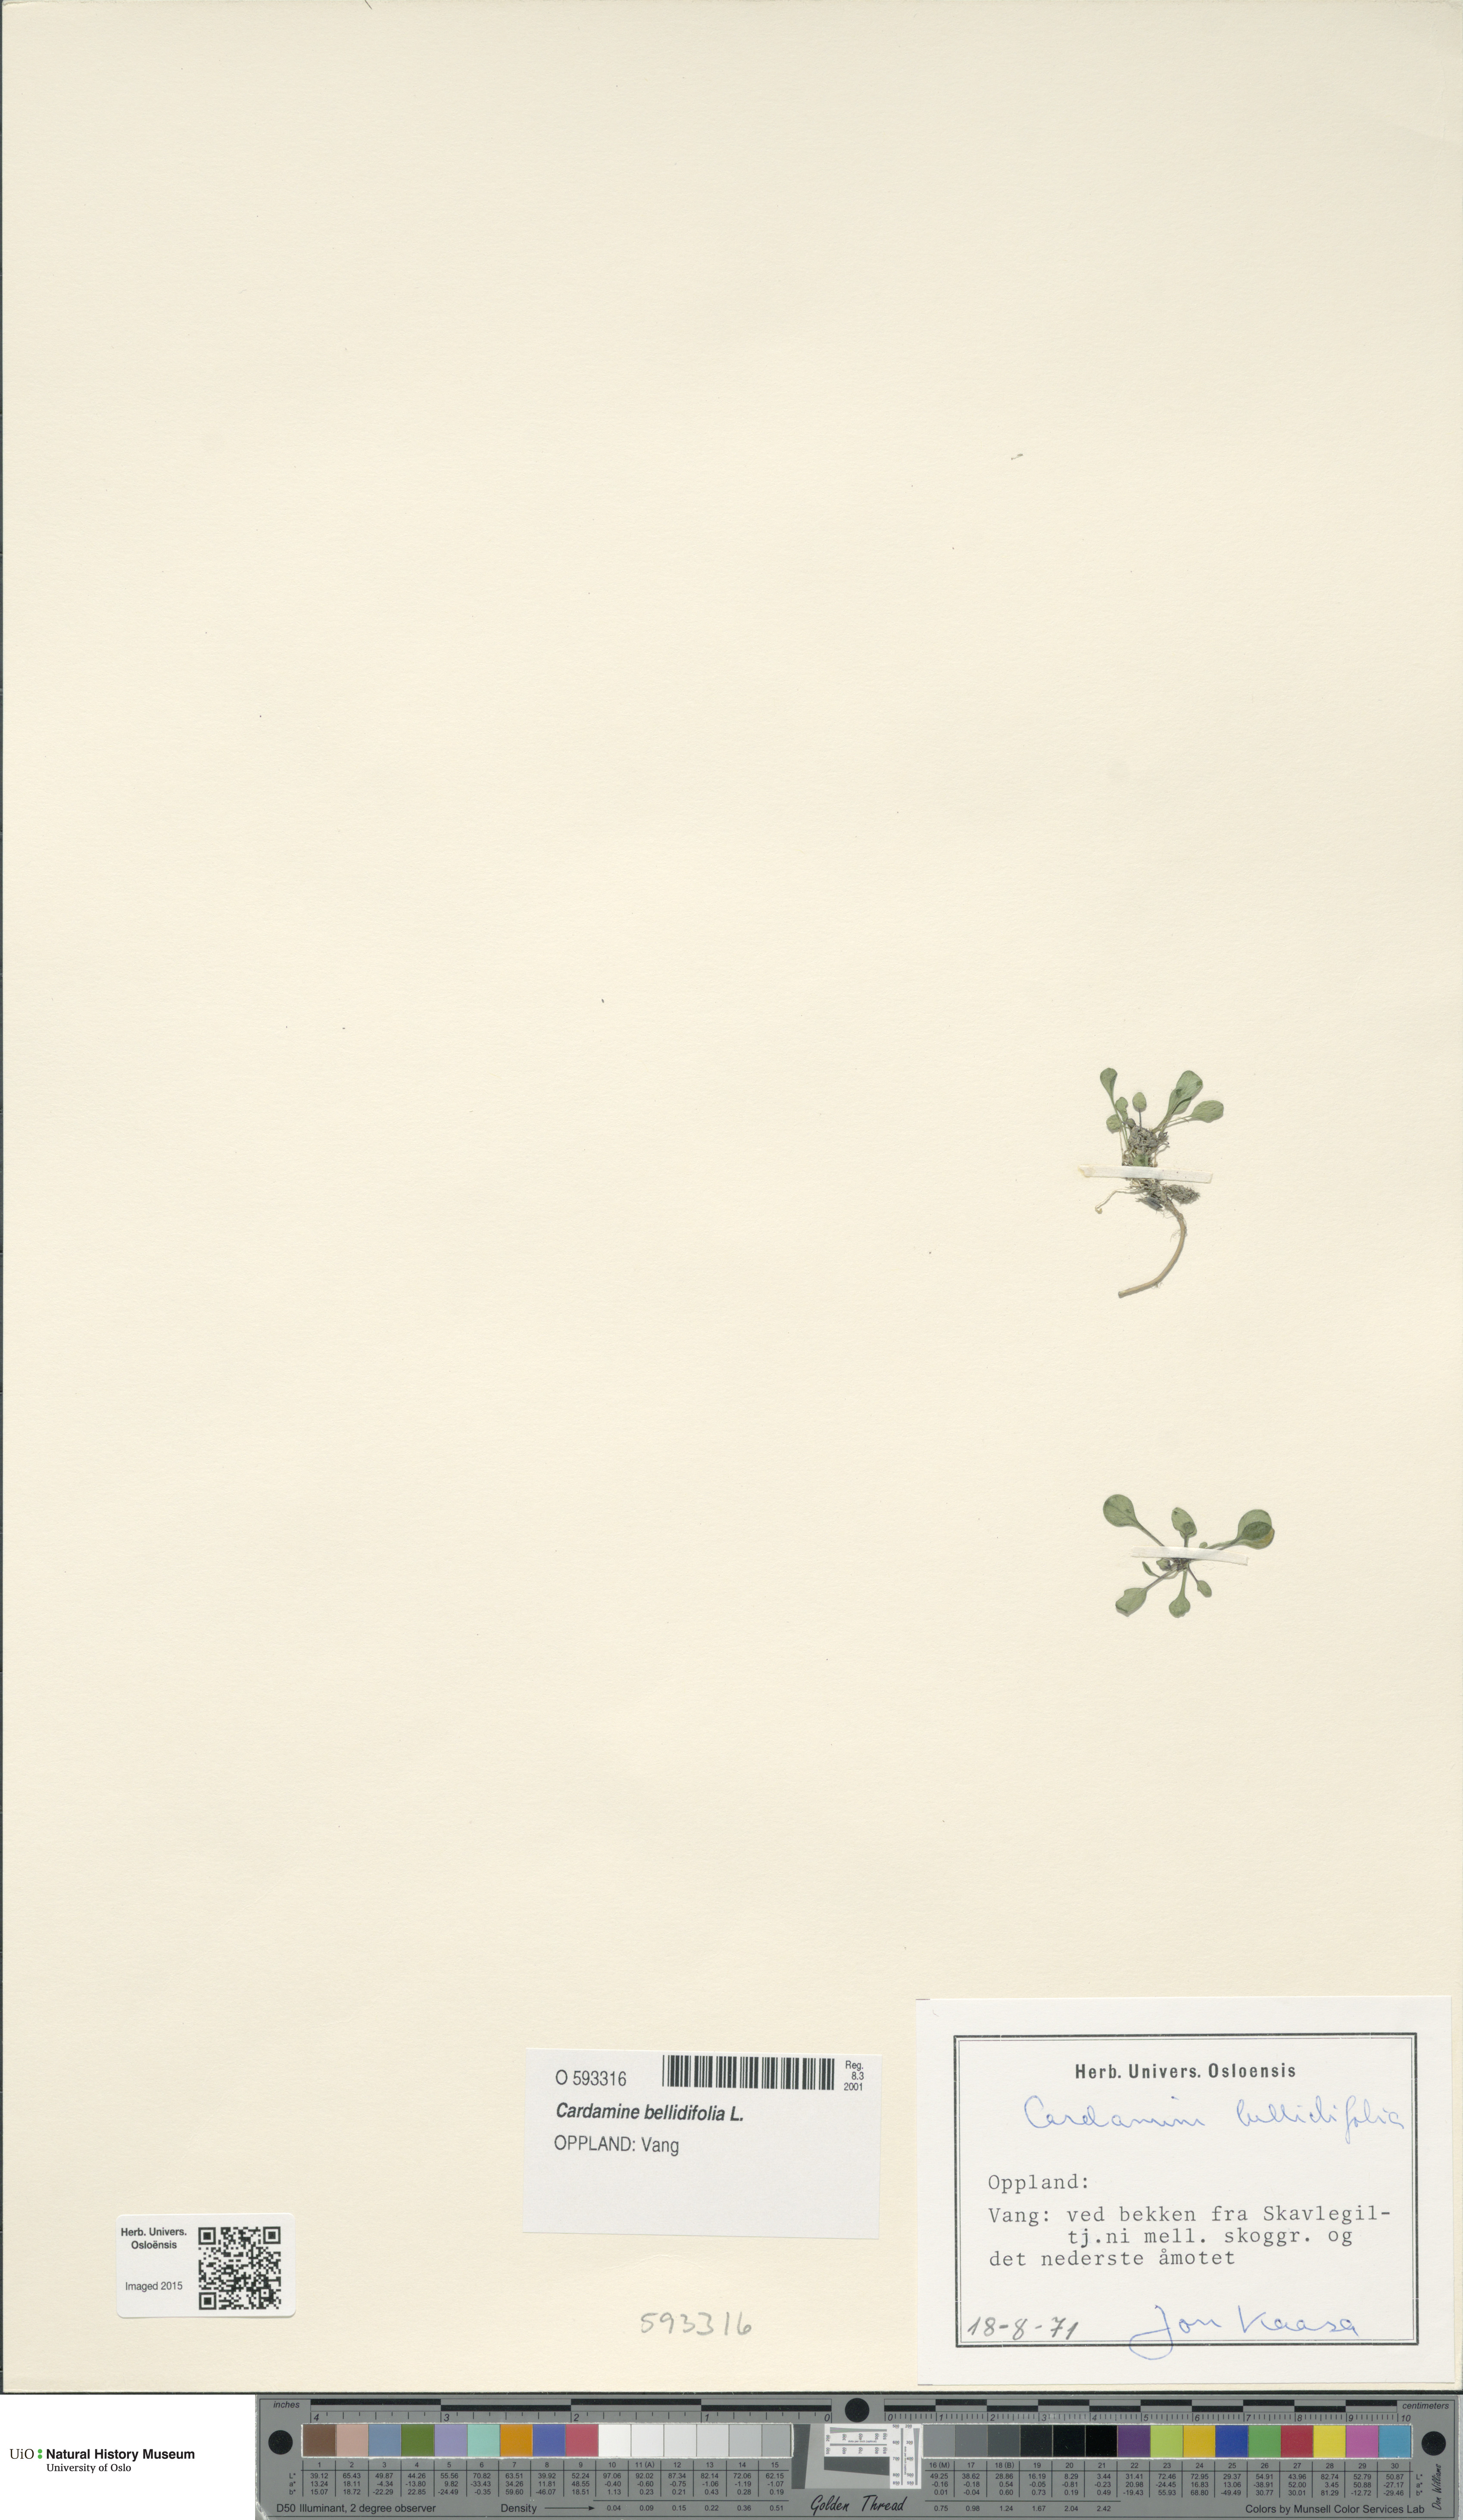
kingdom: Plantae
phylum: Tracheophyta
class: Magnoliopsida
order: Brassicales
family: Brassicaceae
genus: Cardamine
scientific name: Cardamine bellidifolia
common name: Alpine bittercress
